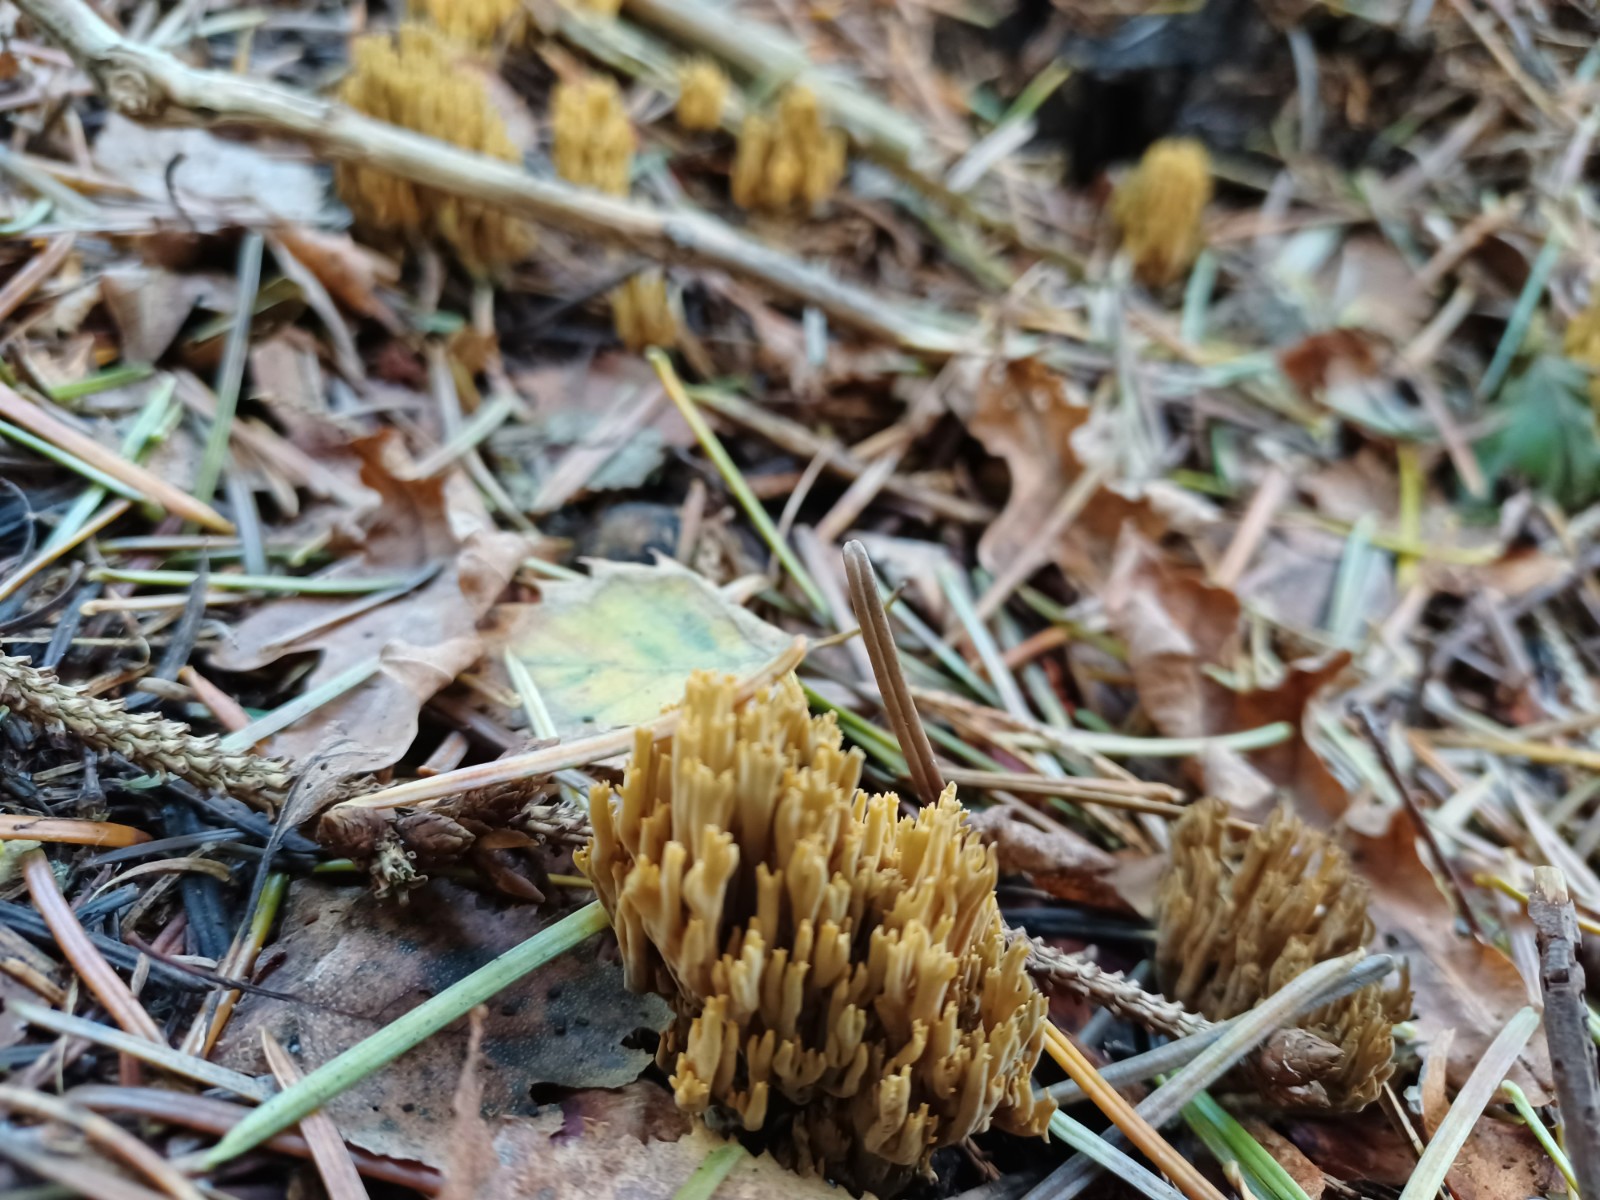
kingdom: Fungi
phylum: Basidiomycota
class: Agaricomycetes
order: Gomphales
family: Gomphaceae
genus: Phaeoclavulina
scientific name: Phaeoclavulina abietina
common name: gulgrøn koralsvamp
